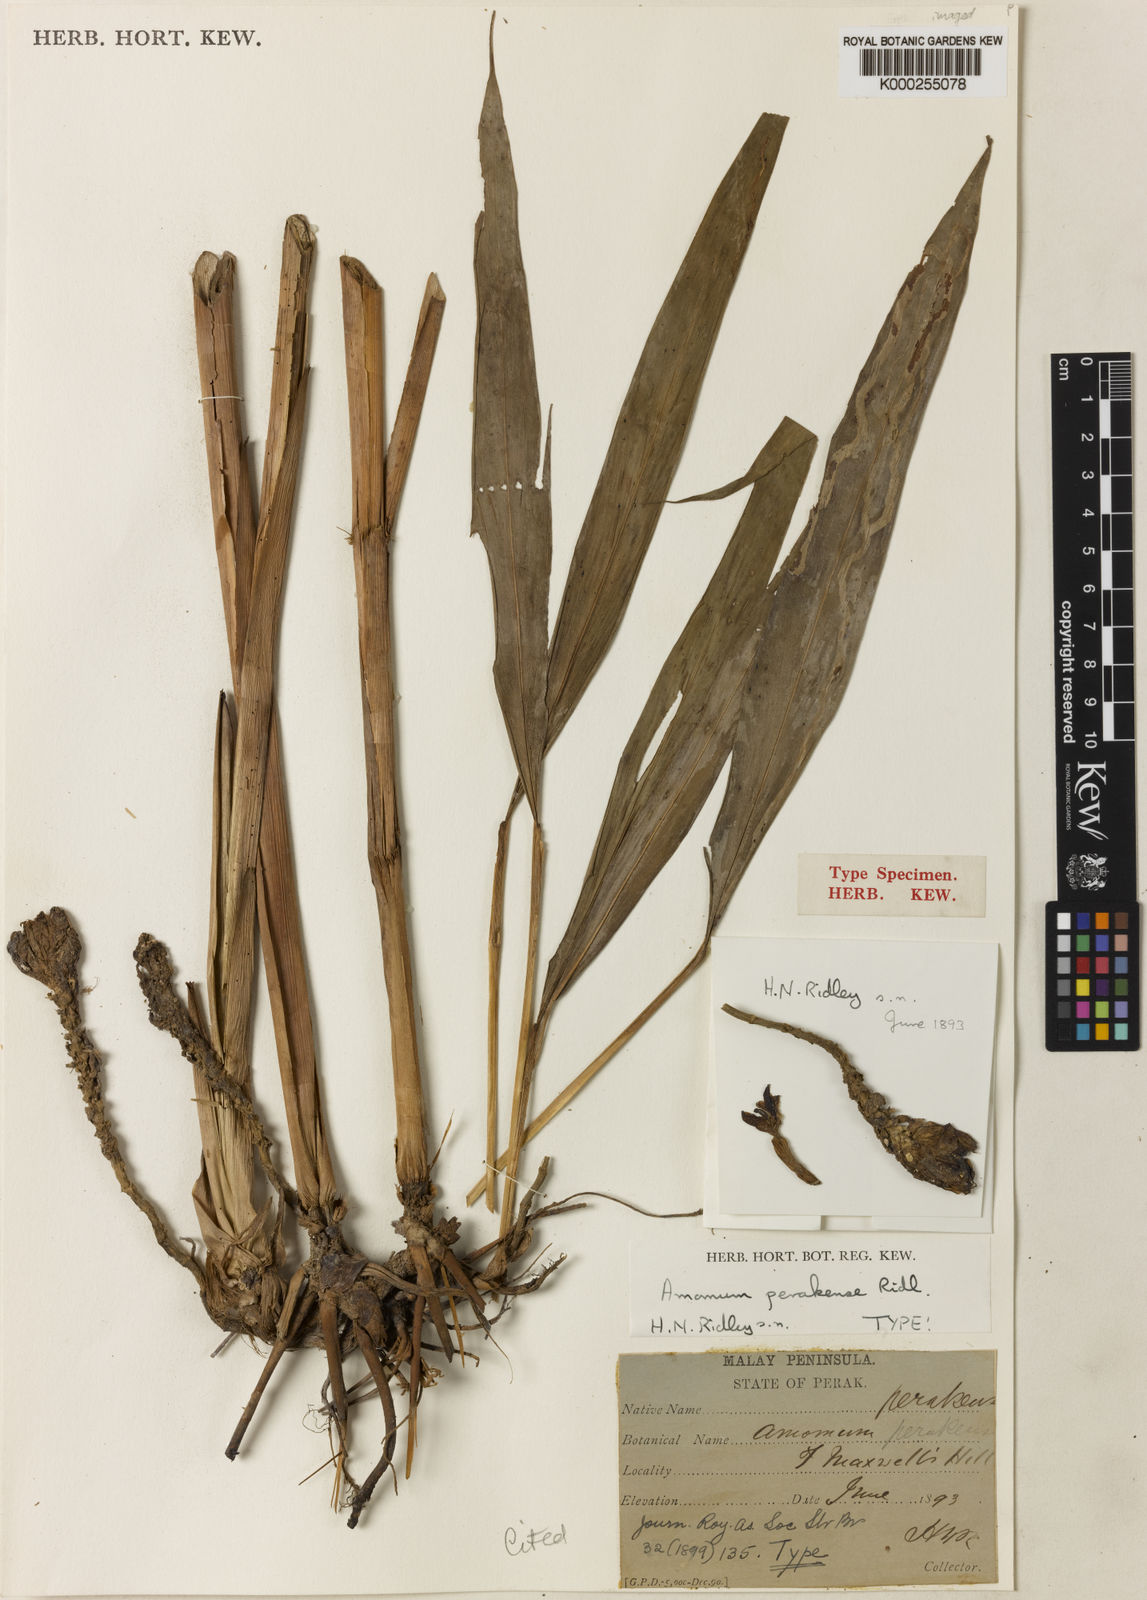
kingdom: Plantae
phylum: Tracheophyta
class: Liliopsida
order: Zingiberales
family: Zingiberaceae
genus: Meistera
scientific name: Meistera lappacea
